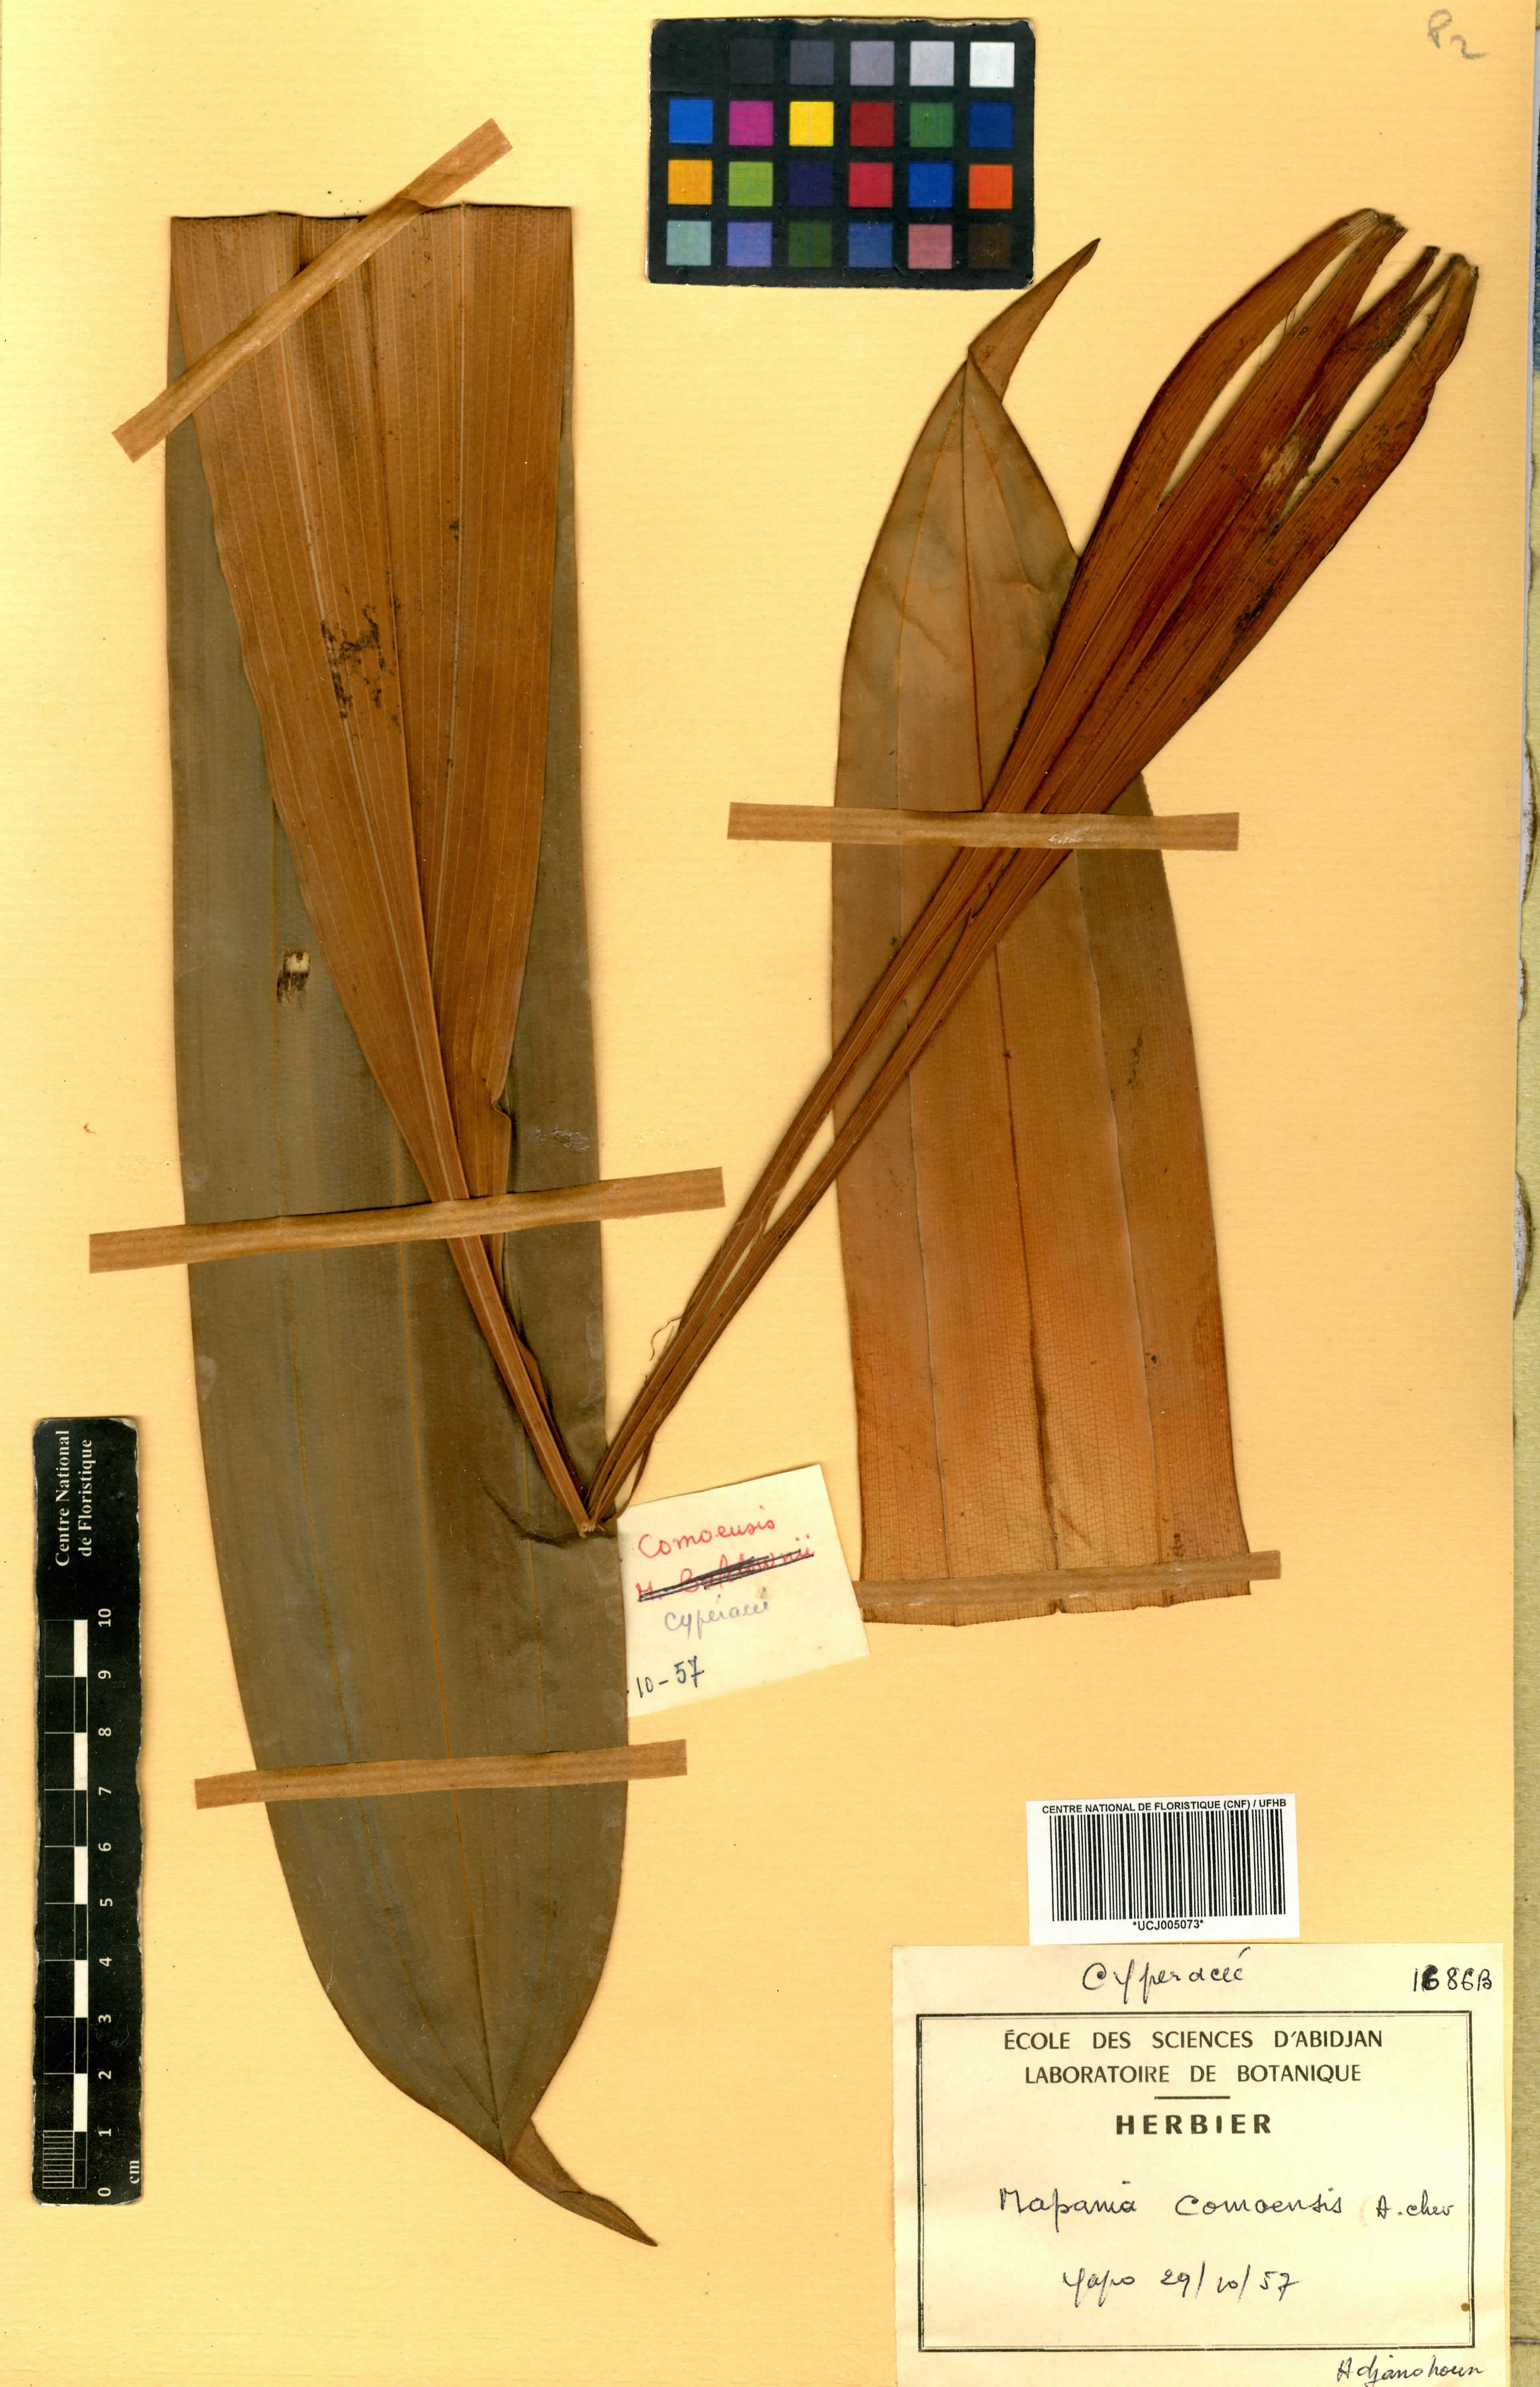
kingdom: Plantae
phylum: Tracheophyta
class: Liliopsida
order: Poales
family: Cyperaceae
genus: Mapania
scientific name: Mapania baldwinii
